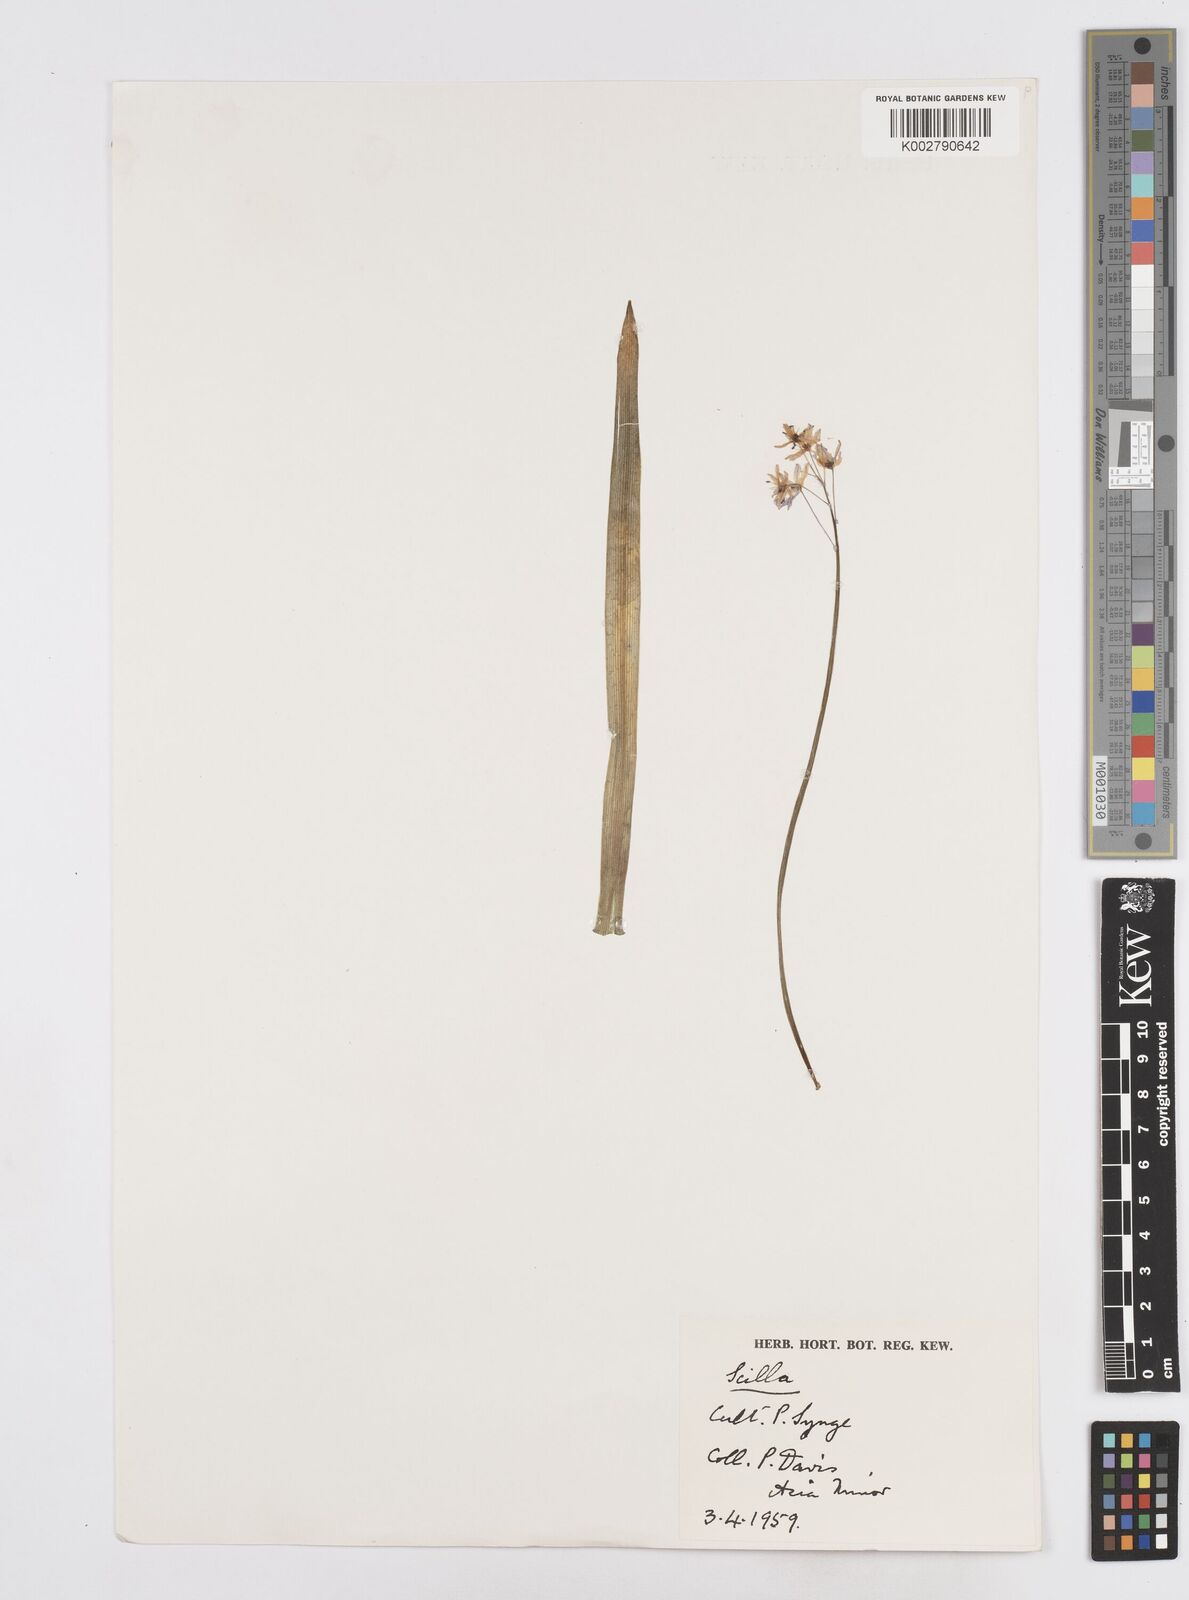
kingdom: Plantae
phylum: Tracheophyta
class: Liliopsida
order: Asparagales
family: Asparagaceae
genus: Scilla
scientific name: Scilla bithynica
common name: Turkish squill
